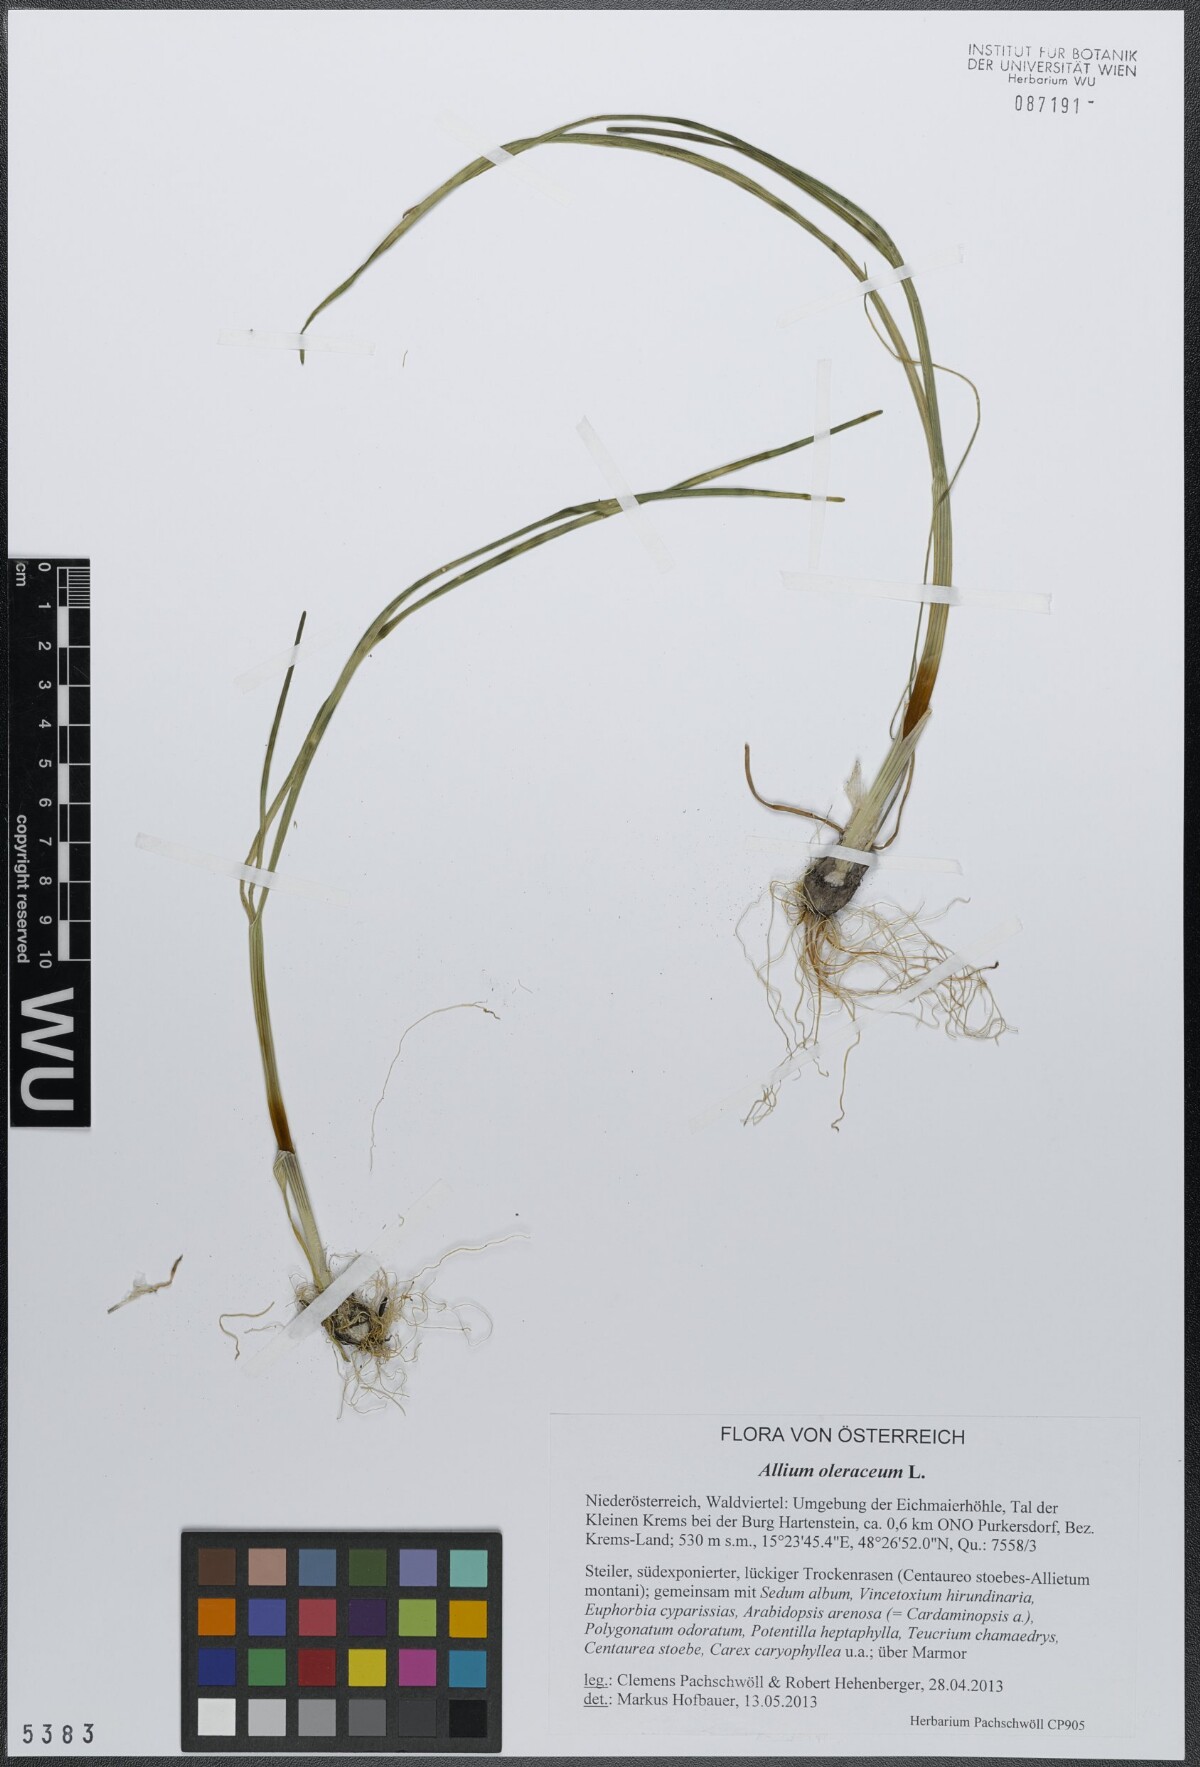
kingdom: Plantae
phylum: Tracheophyta
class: Liliopsida
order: Asparagales
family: Amaryllidaceae
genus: Allium
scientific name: Allium oleraceum
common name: Field garlic
